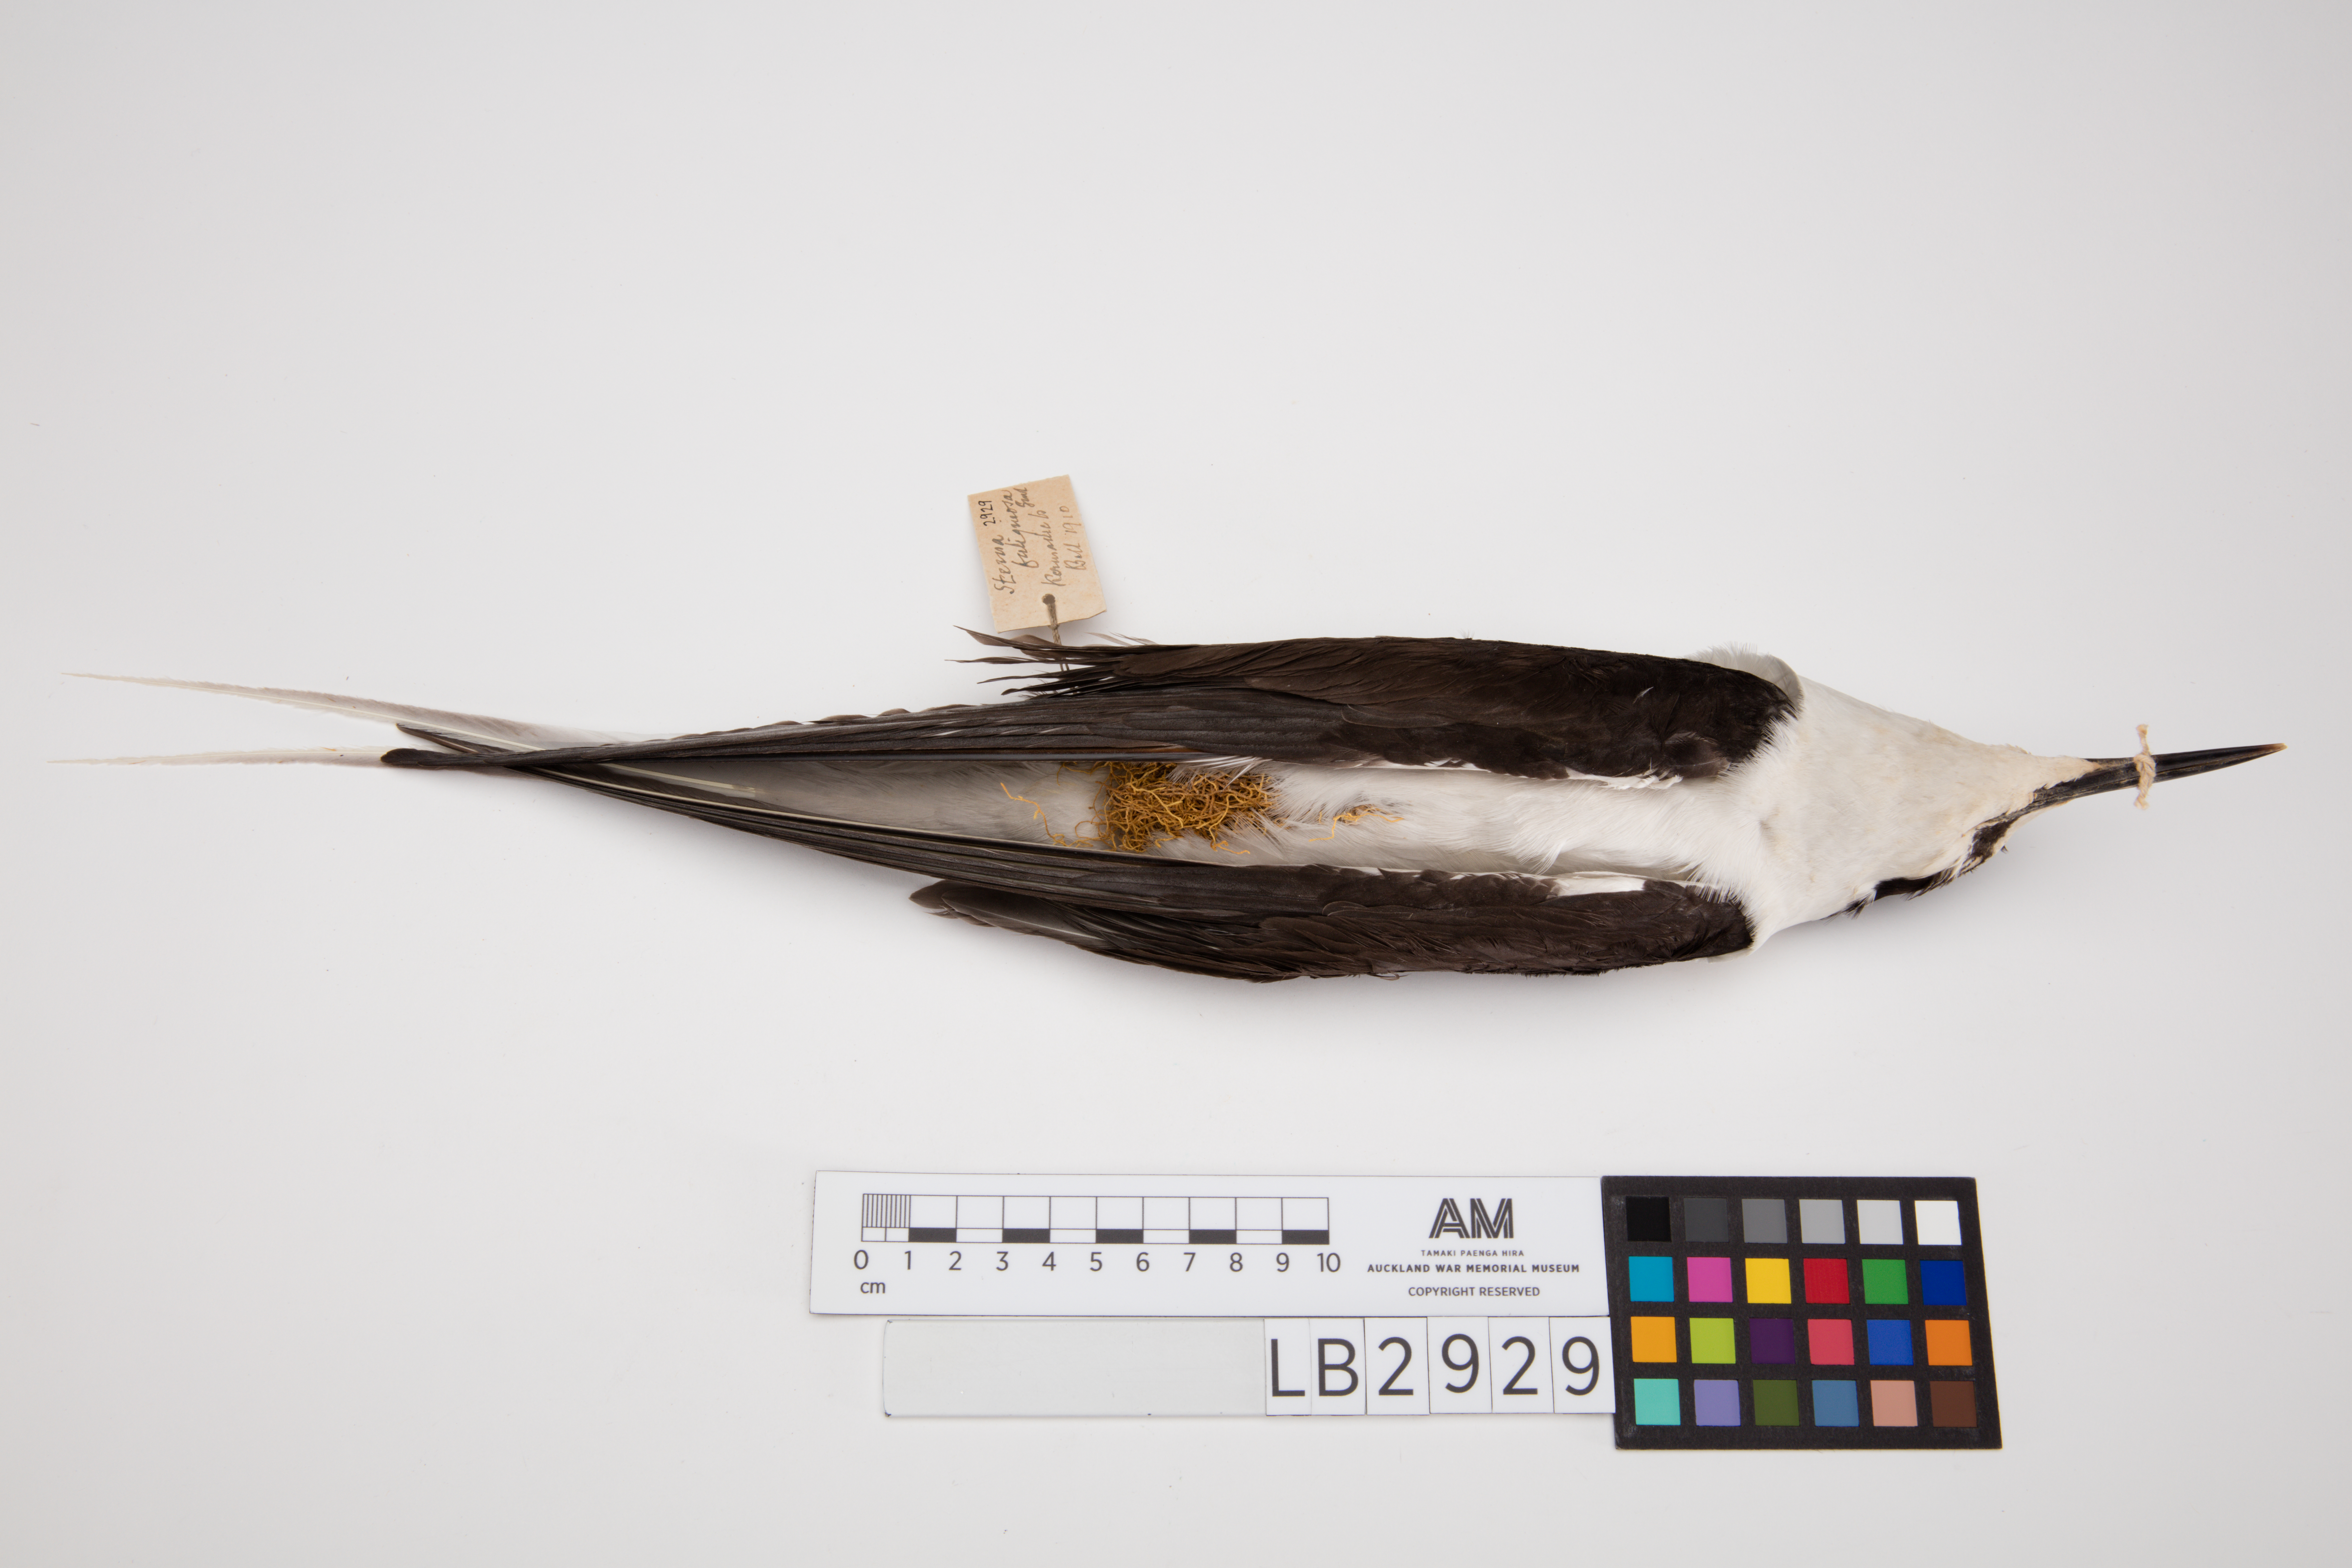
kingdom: Animalia
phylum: Chordata
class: Aves
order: Charadriiformes
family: Laridae
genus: Onychoprion
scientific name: Onychoprion fuscatus
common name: Sooty tern
